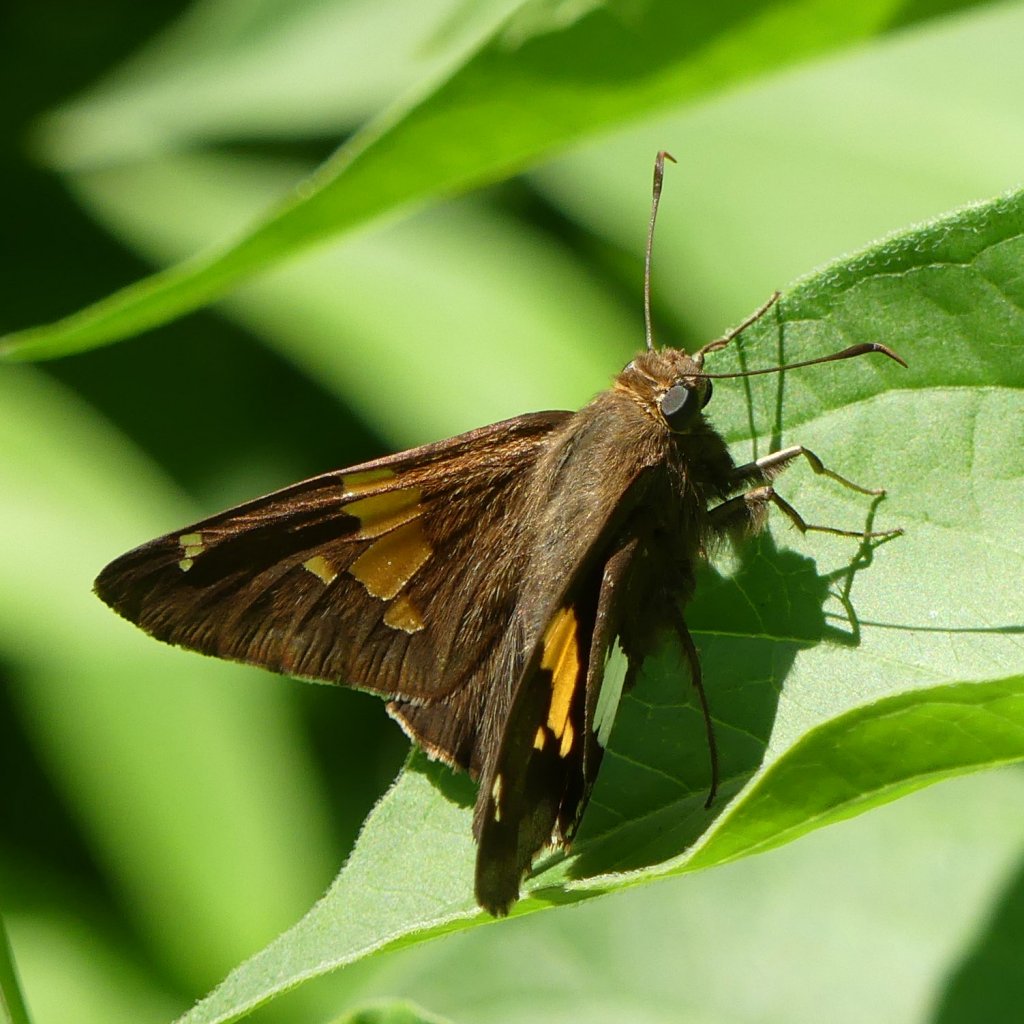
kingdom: Animalia
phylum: Arthropoda
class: Insecta
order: Lepidoptera
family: Hesperiidae
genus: Epargyreus
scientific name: Epargyreus clarus
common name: Silver-spotted Skipper
